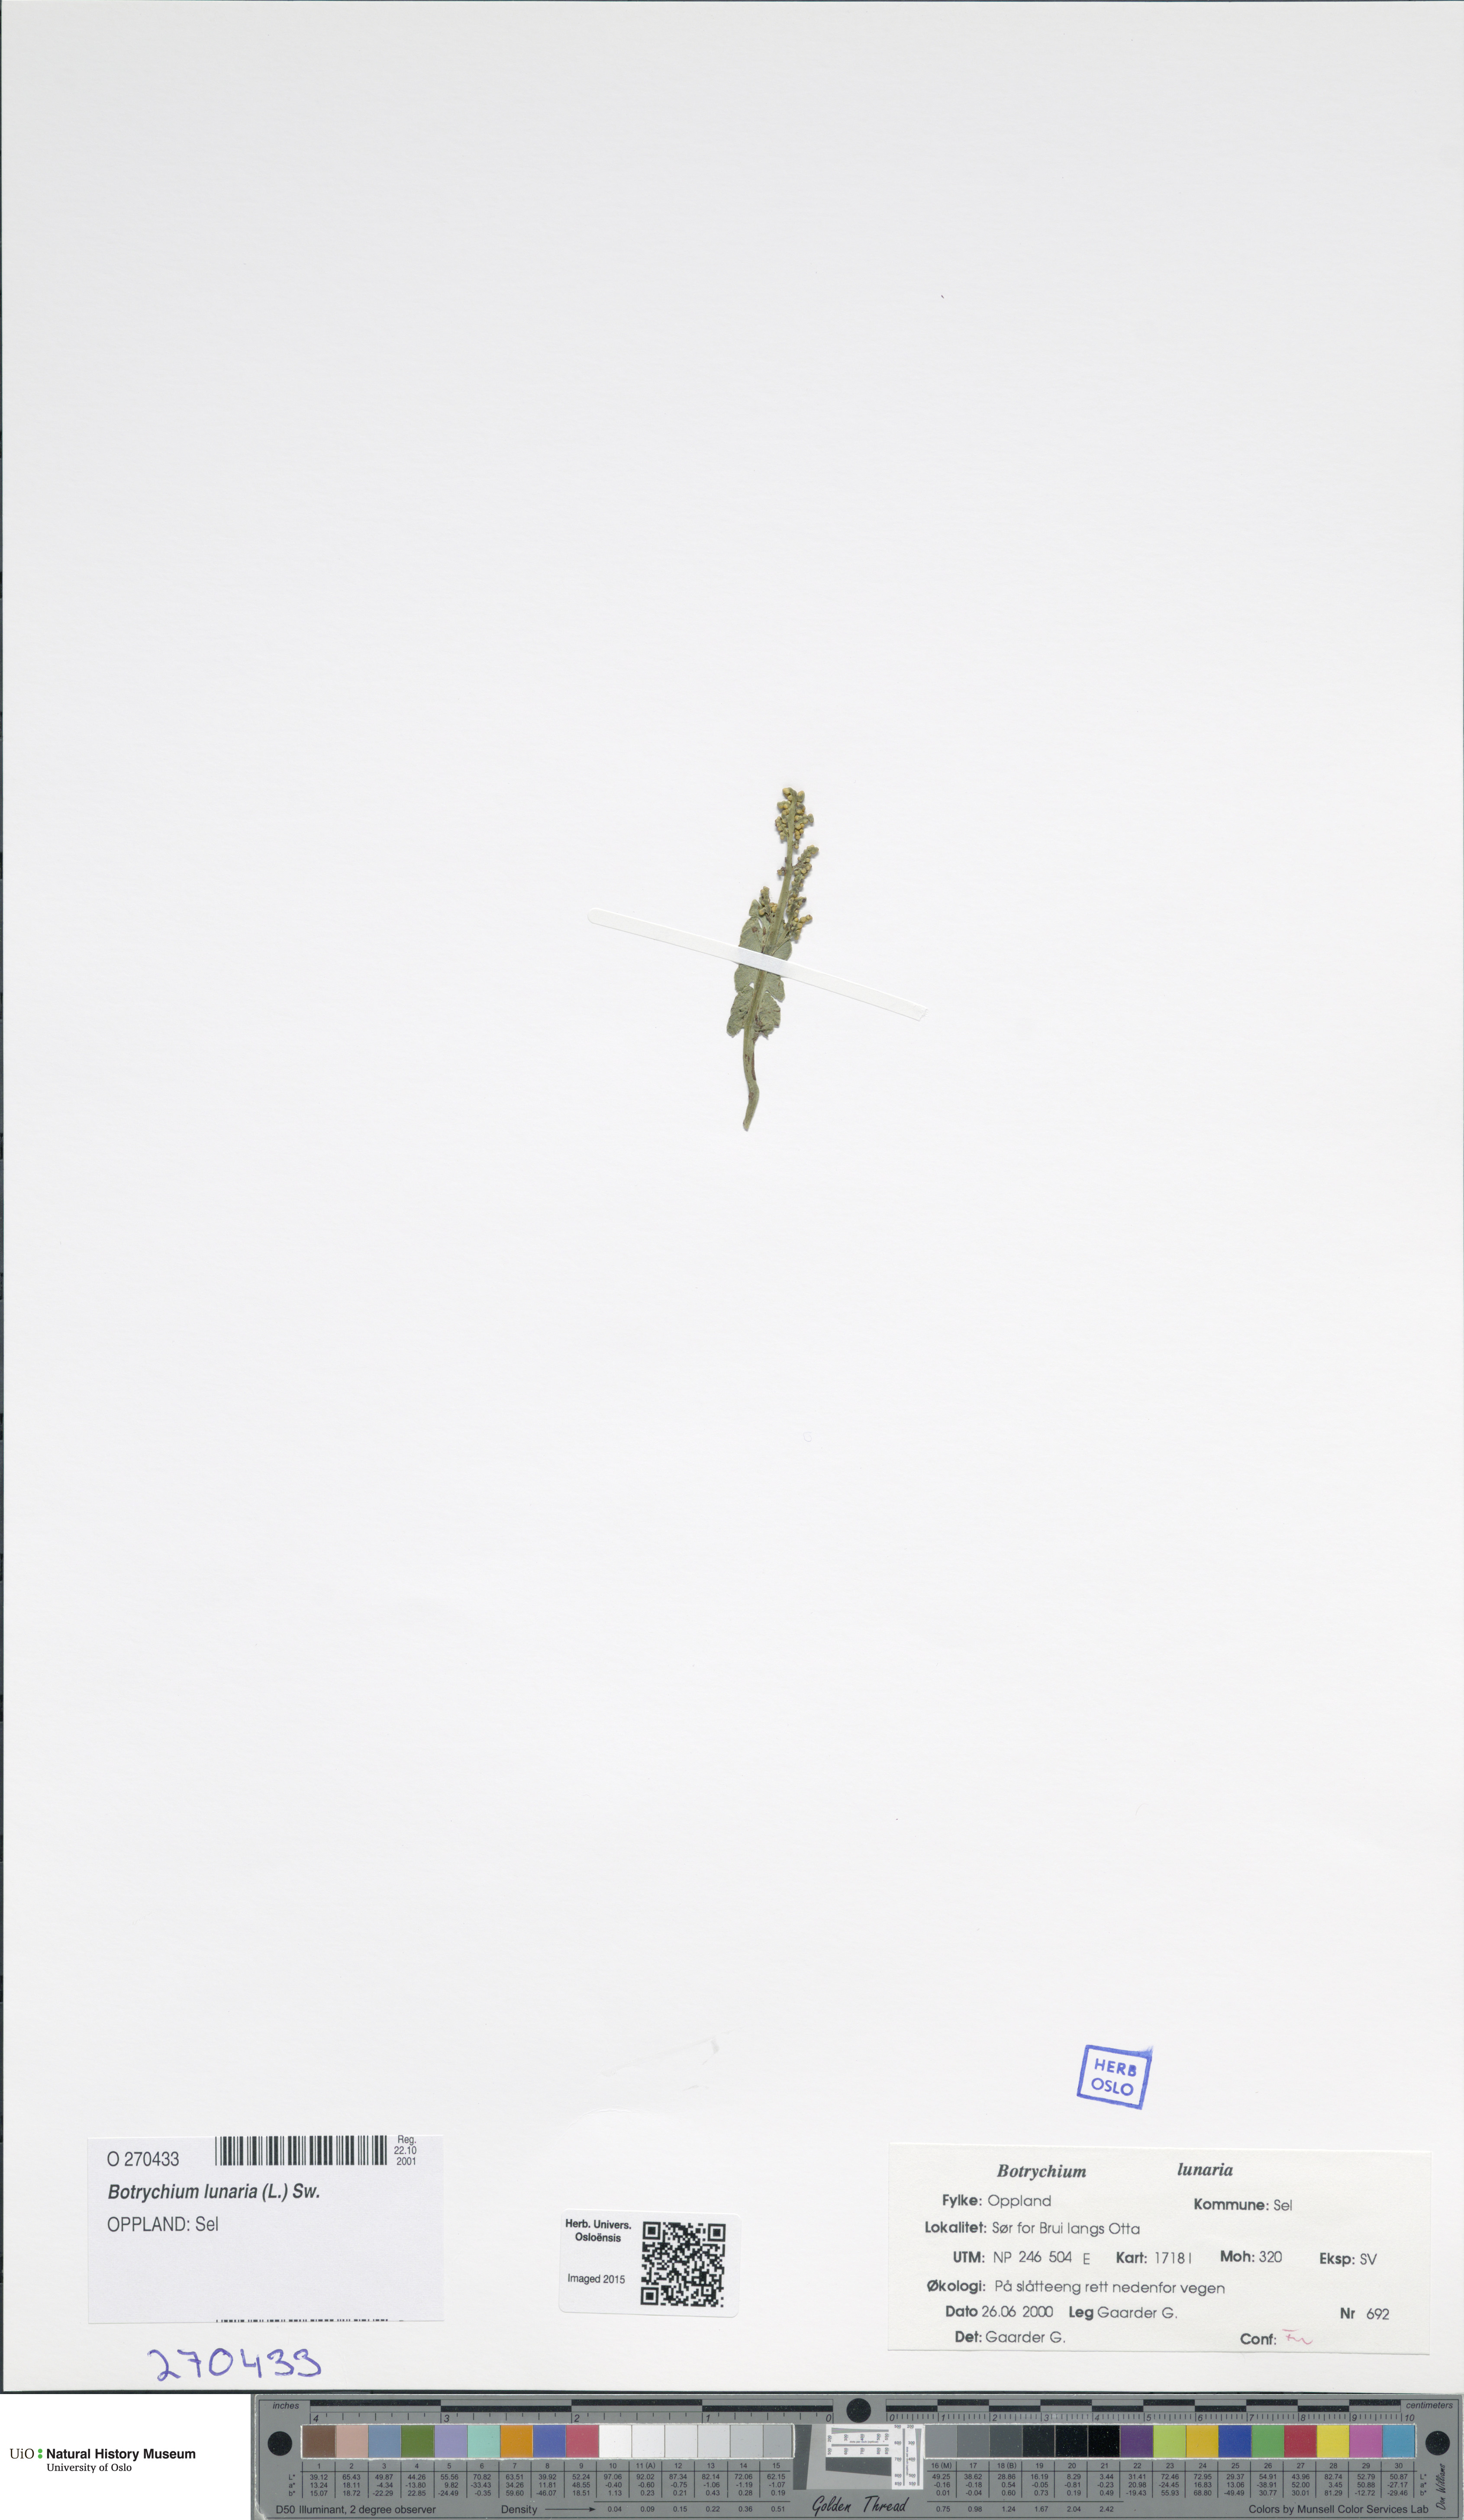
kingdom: Plantae
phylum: Tracheophyta
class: Polypodiopsida
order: Ophioglossales
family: Ophioglossaceae
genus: Botrychium
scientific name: Botrychium lunaria
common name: Moonwort
